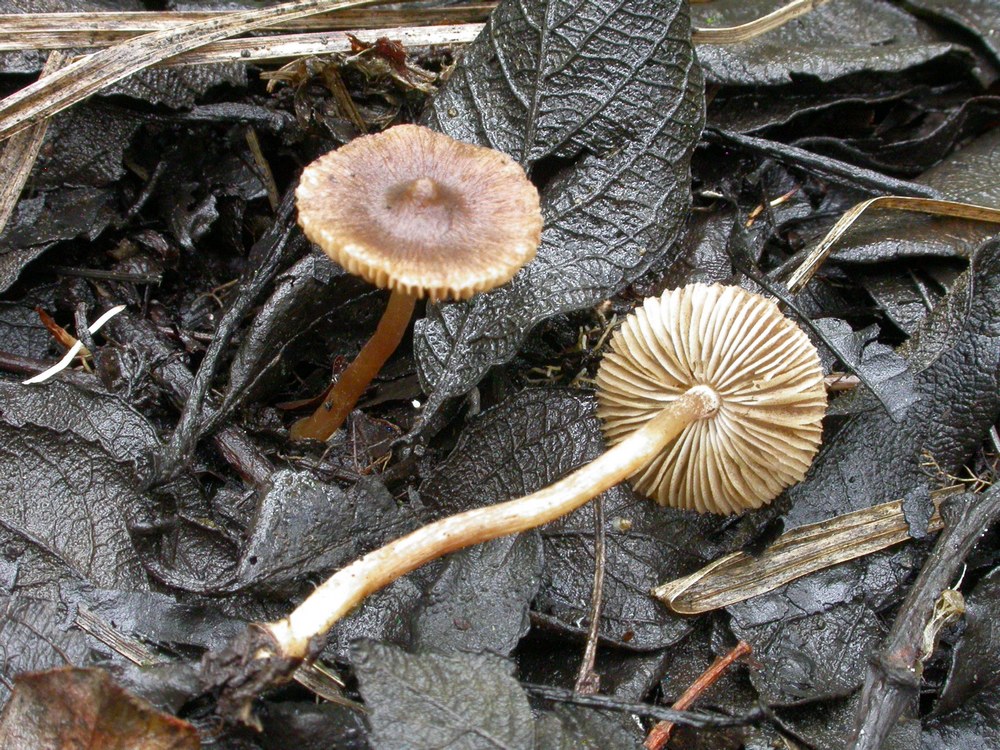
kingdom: Fungi
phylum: Basidiomycota
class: Agaricomycetes
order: Agaricales
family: Inocybaceae
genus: Inocybe
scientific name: Inocybe acuta
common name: papil-trævlhat
